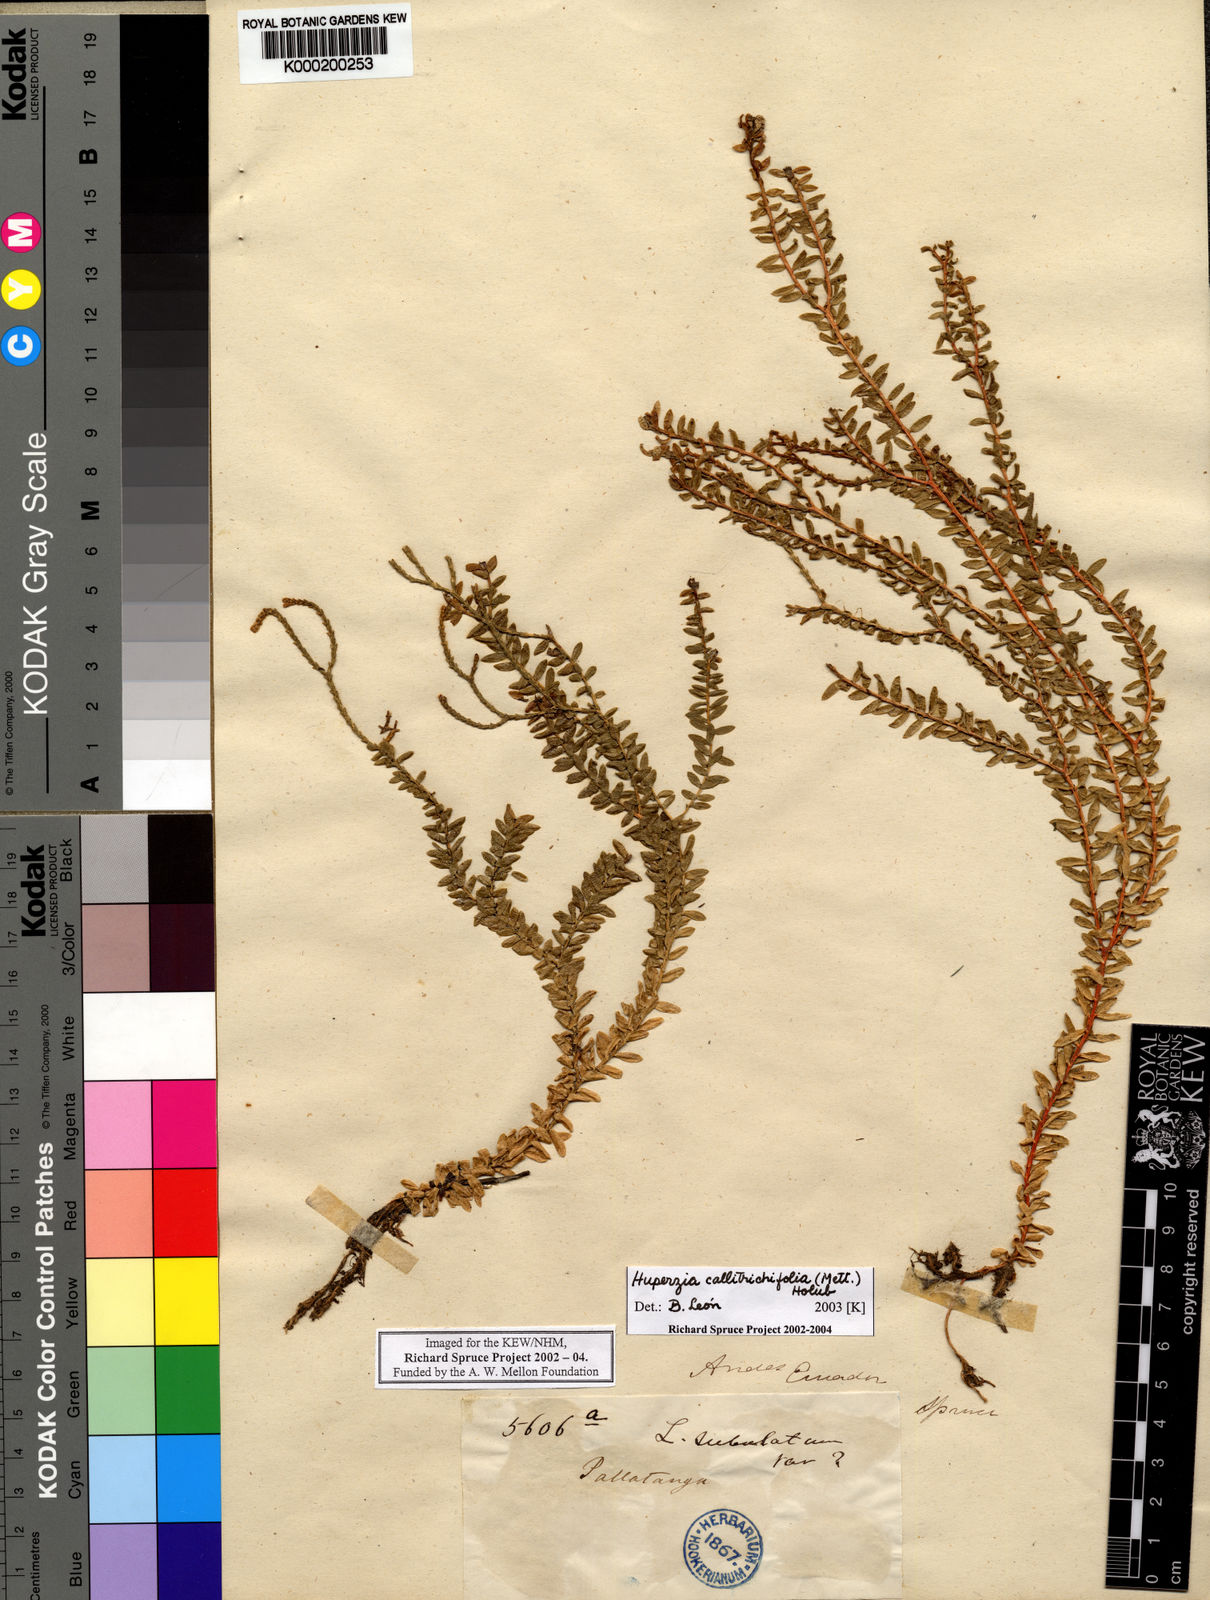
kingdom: Plantae
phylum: Tracheophyta
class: Lycopodiopsida
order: Lycopodiales
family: Lycopodiaceae
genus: Phlegmariurus
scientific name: Phlegmariurus callitrichifolius
